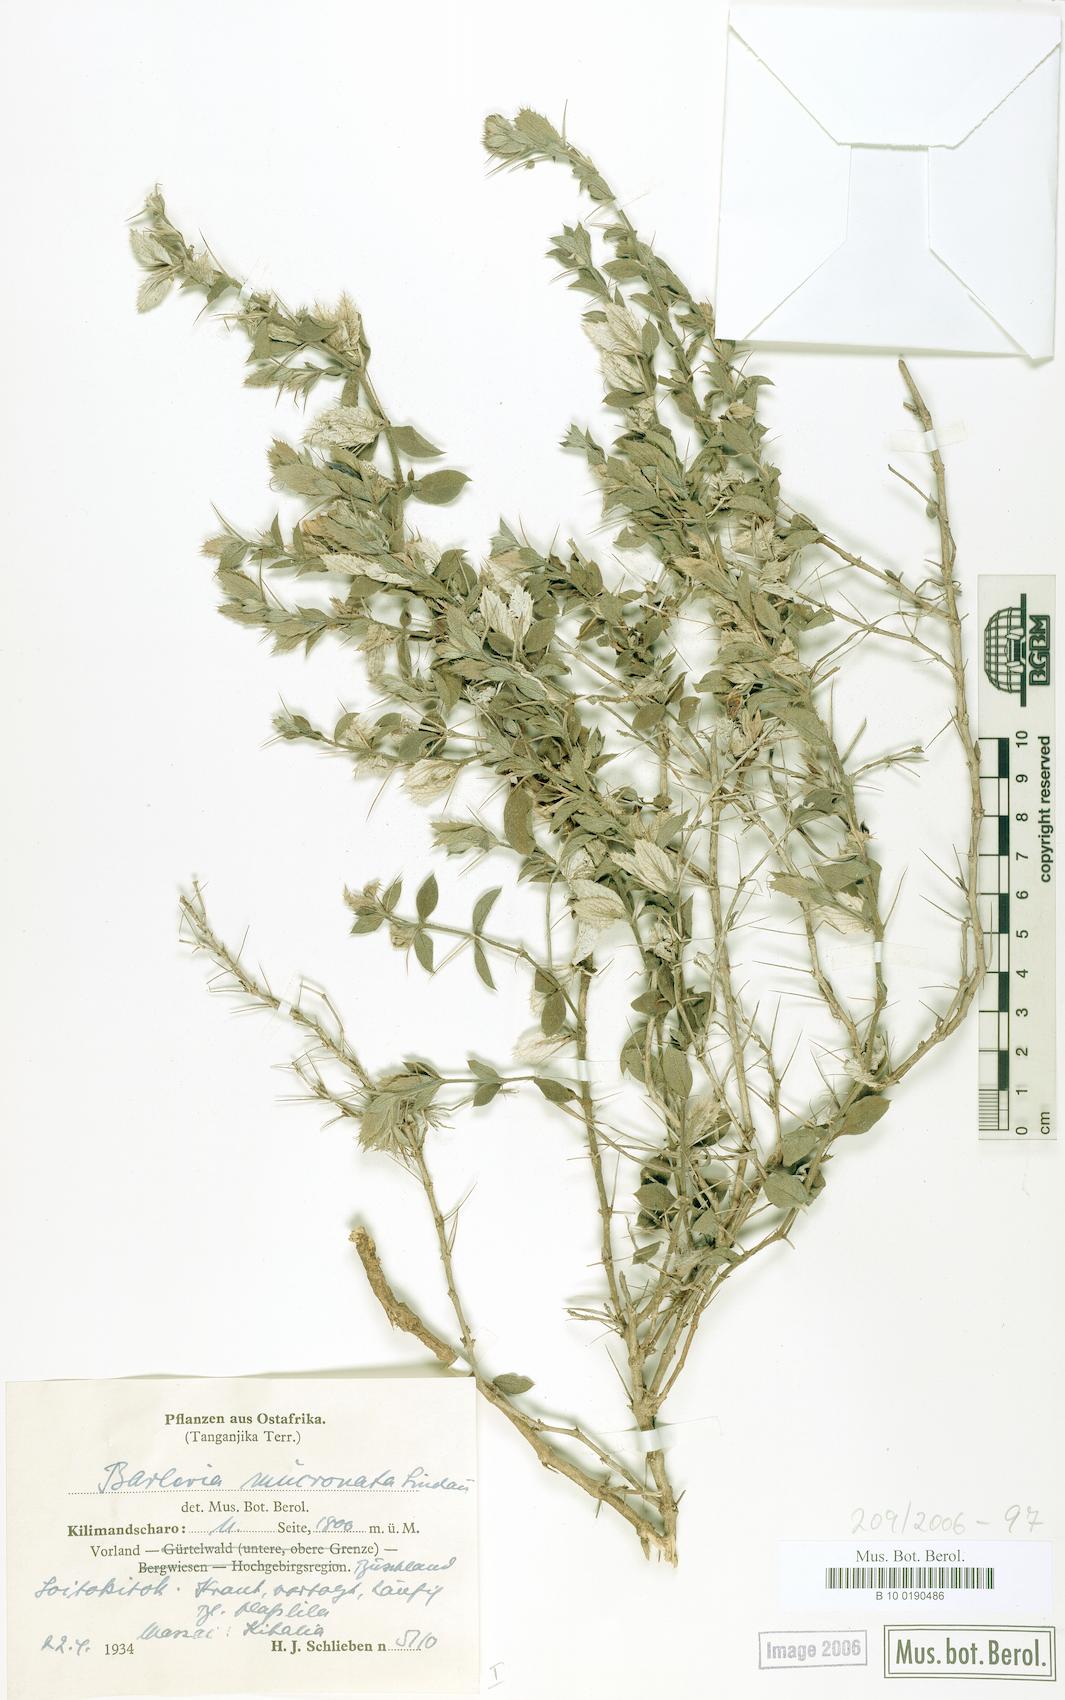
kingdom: Plantae
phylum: Tracheophyta
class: Magnoliopsida
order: Lamiales
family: Acanthaceae
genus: Barleria
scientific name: Barleria grandicalyx
